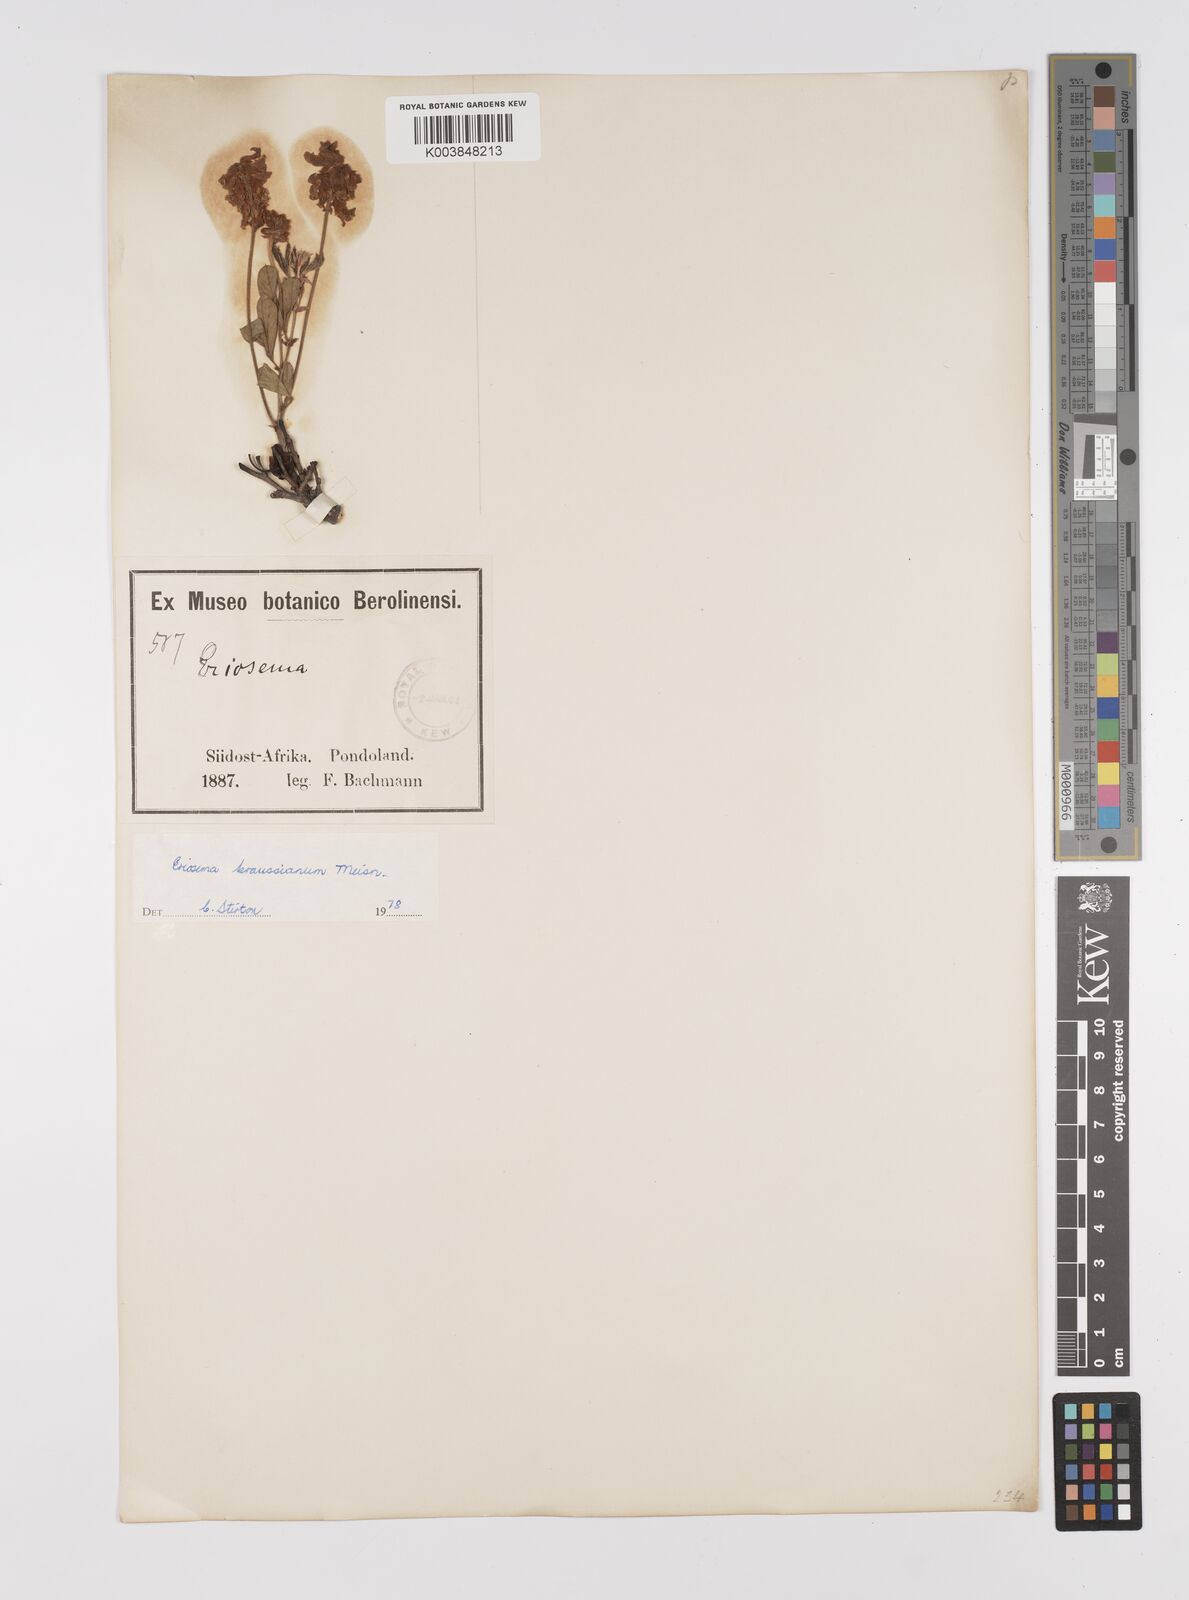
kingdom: Plantae
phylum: Tracheophyta
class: Magnoliopsida
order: Fabales
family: Fabaceae
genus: Eriosema
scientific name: Eriosema kraussianum
